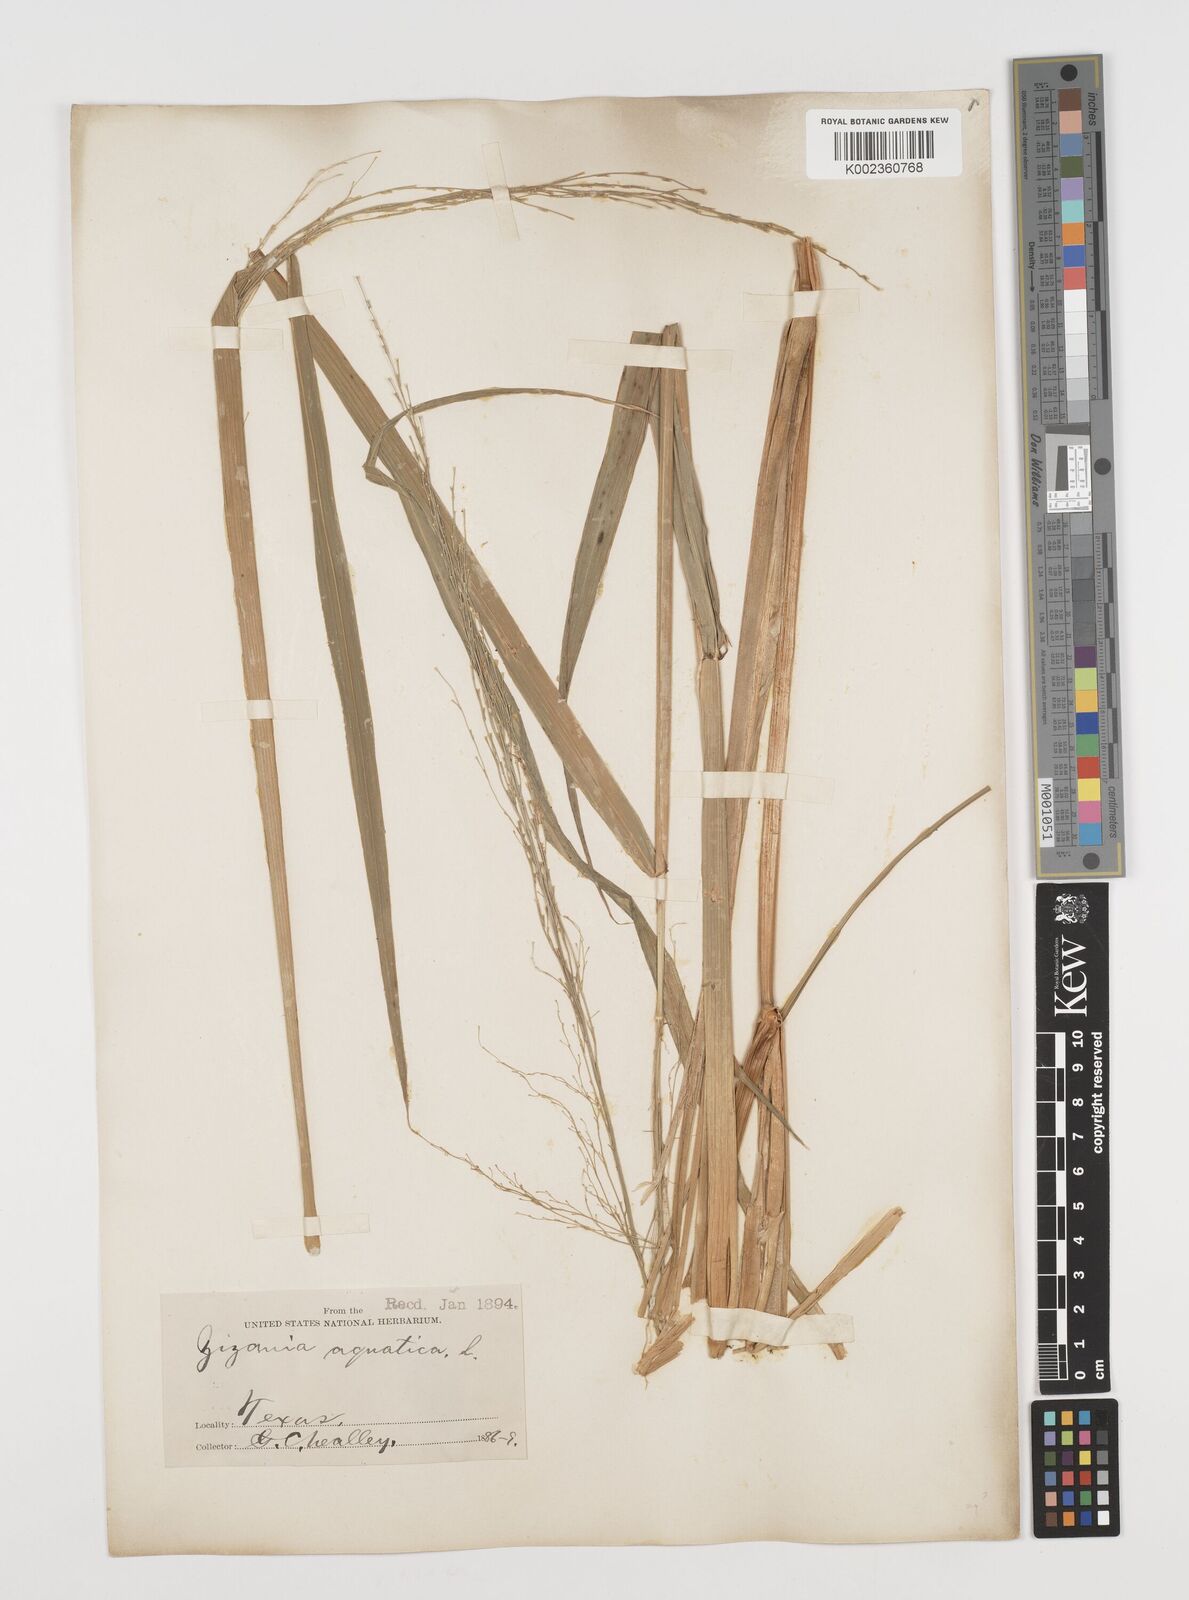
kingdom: Plantae
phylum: Tracheophyta
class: Liliopsida
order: Poales
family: Poaceae
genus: Zizania
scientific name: Zizania aquatica
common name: Annual wildrice
